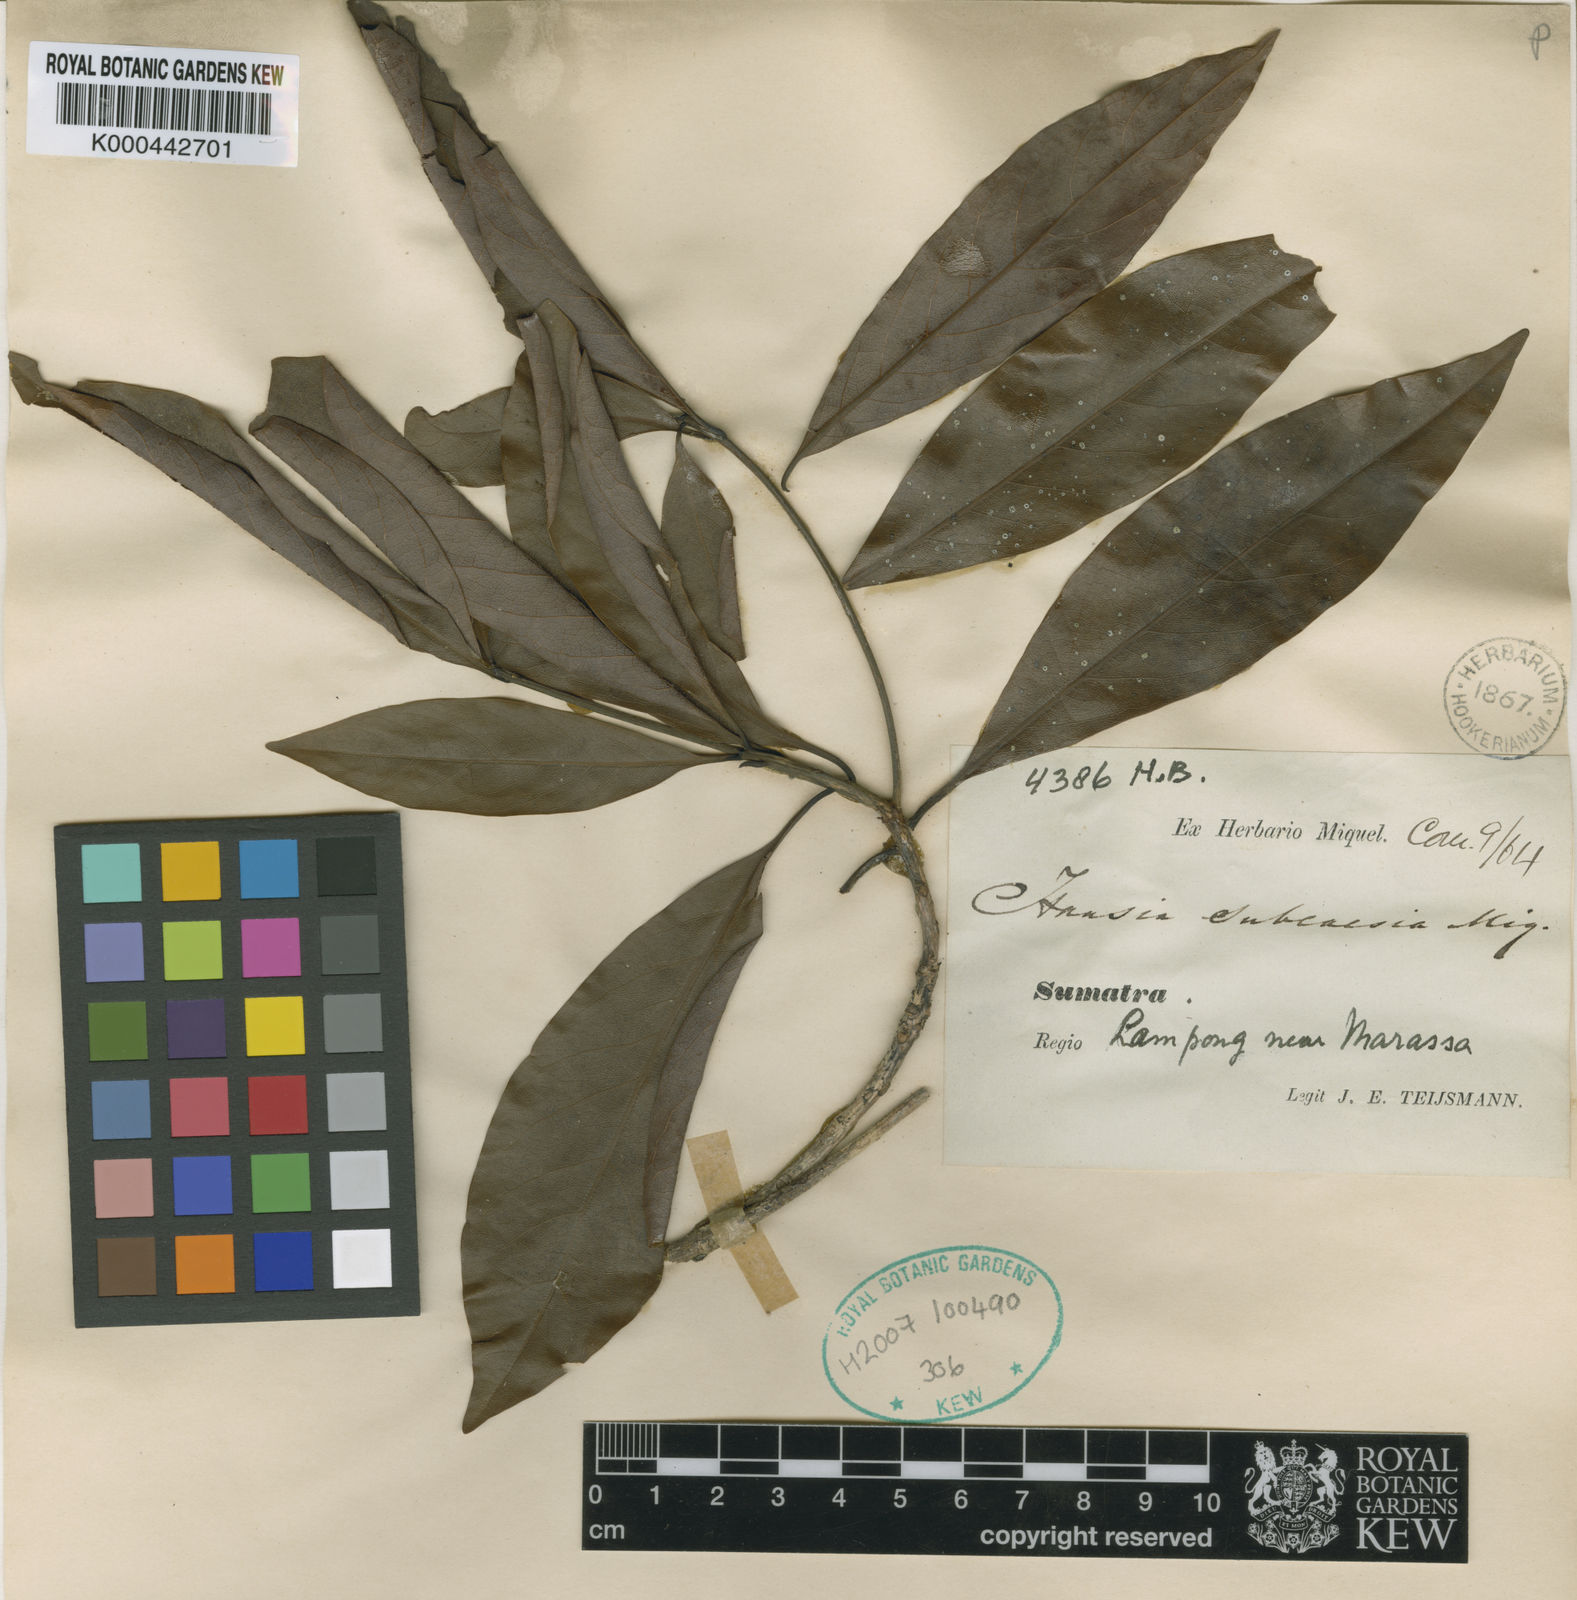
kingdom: Plantae
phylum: Tracheophyta
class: Magnoliopsida
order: Laurales
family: Lauraceae
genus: Dehaasia
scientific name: Dehaasia
